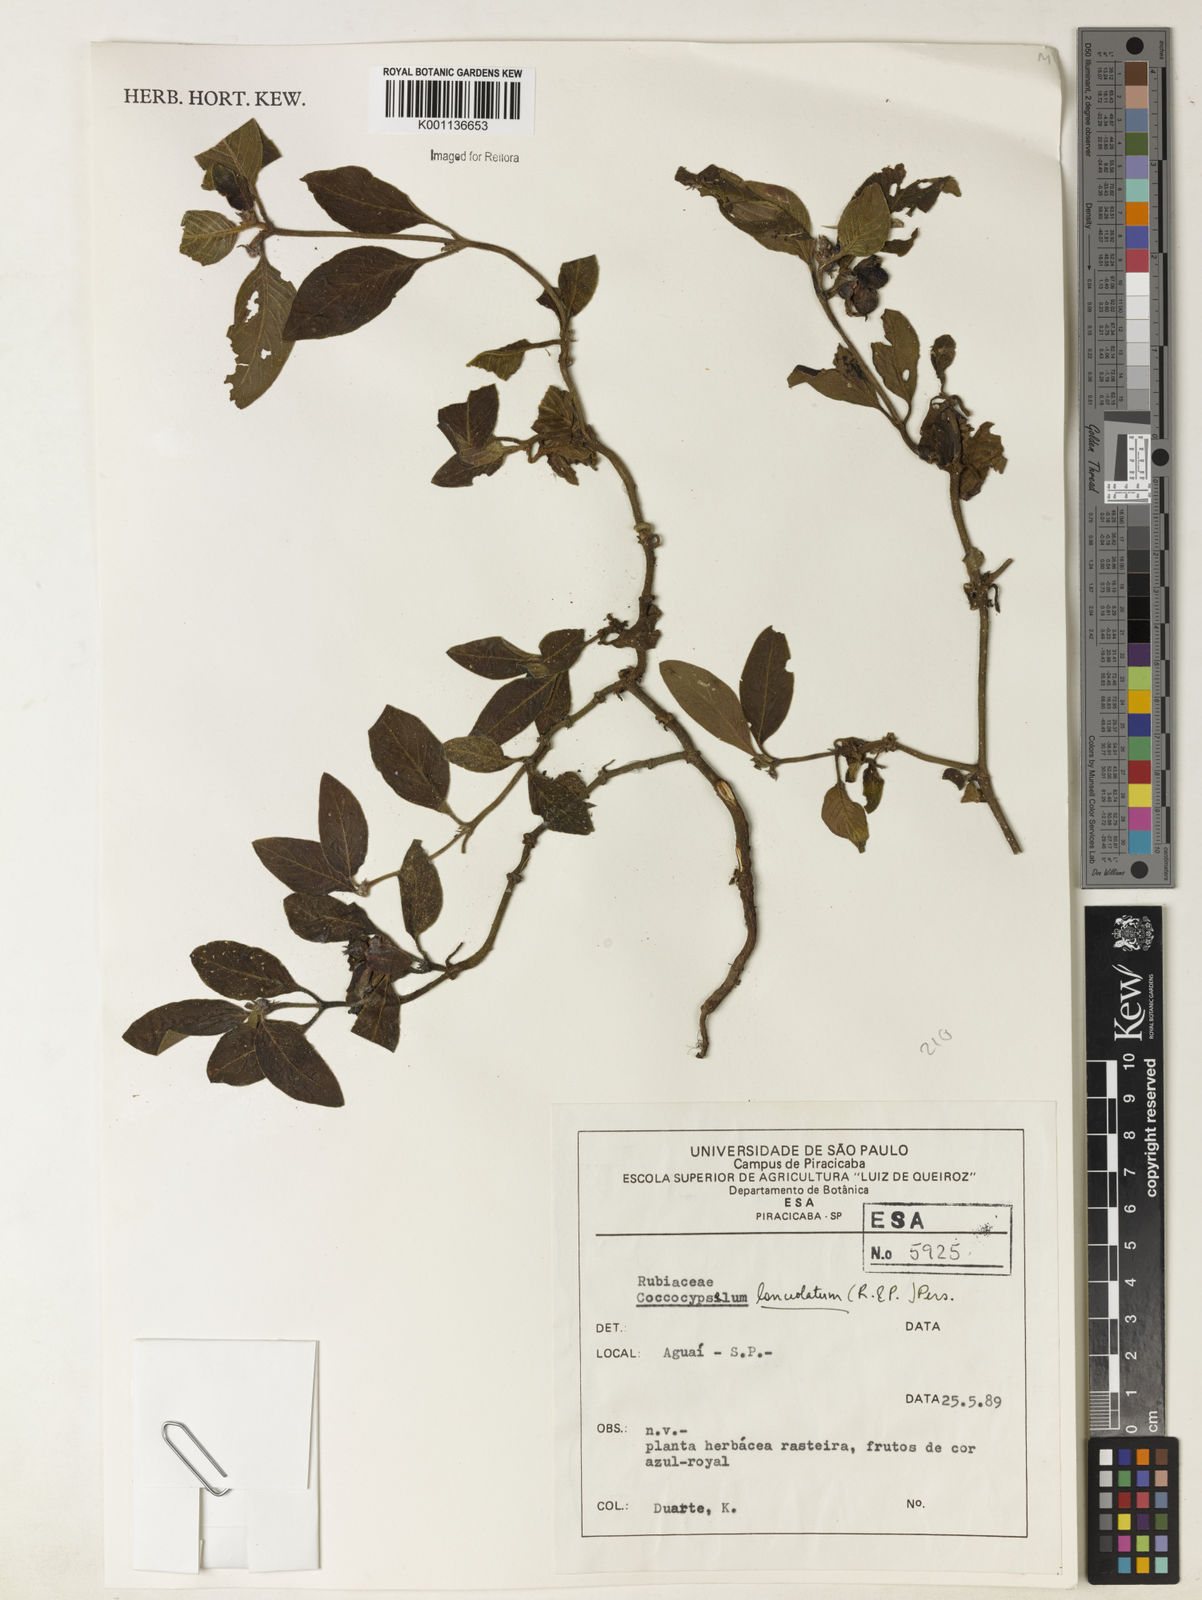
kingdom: Plantae
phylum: Tracheophyta
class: Magnoliopsida
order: Gentianales
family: Rubiaceae
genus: Coccocypselum
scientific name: Coccocypselum lanceolatum
